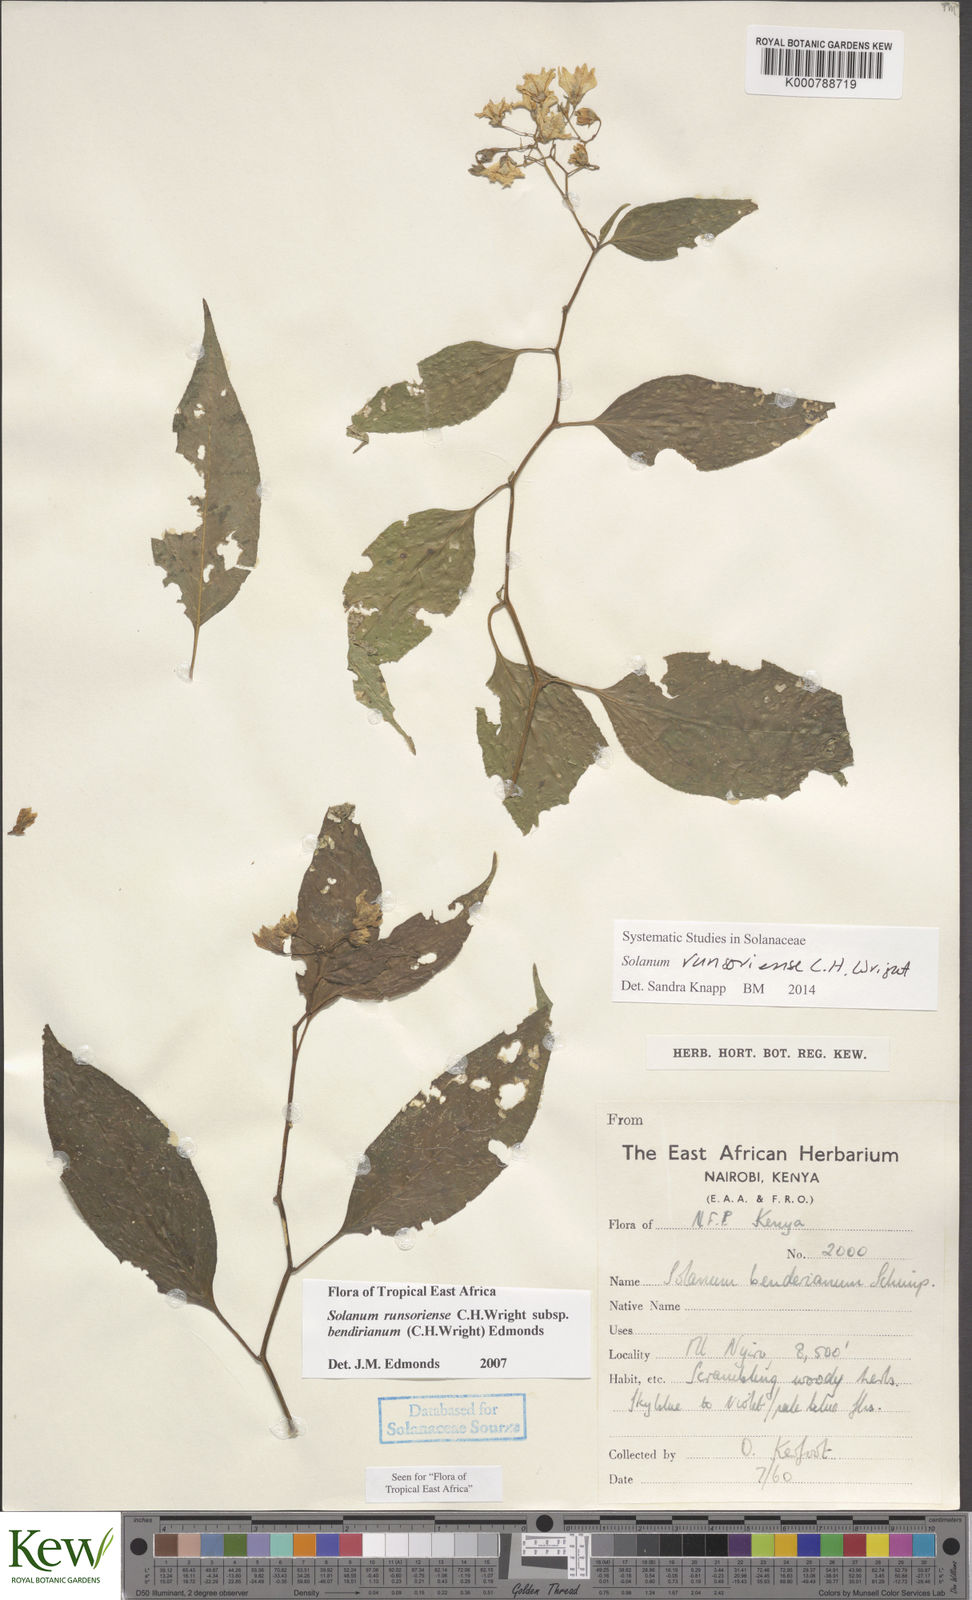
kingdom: Plantae
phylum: Tracheophyta
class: Magnoliopsida
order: Solanales
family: Solanaceae
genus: Solanum
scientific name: Solanum runsoriense
